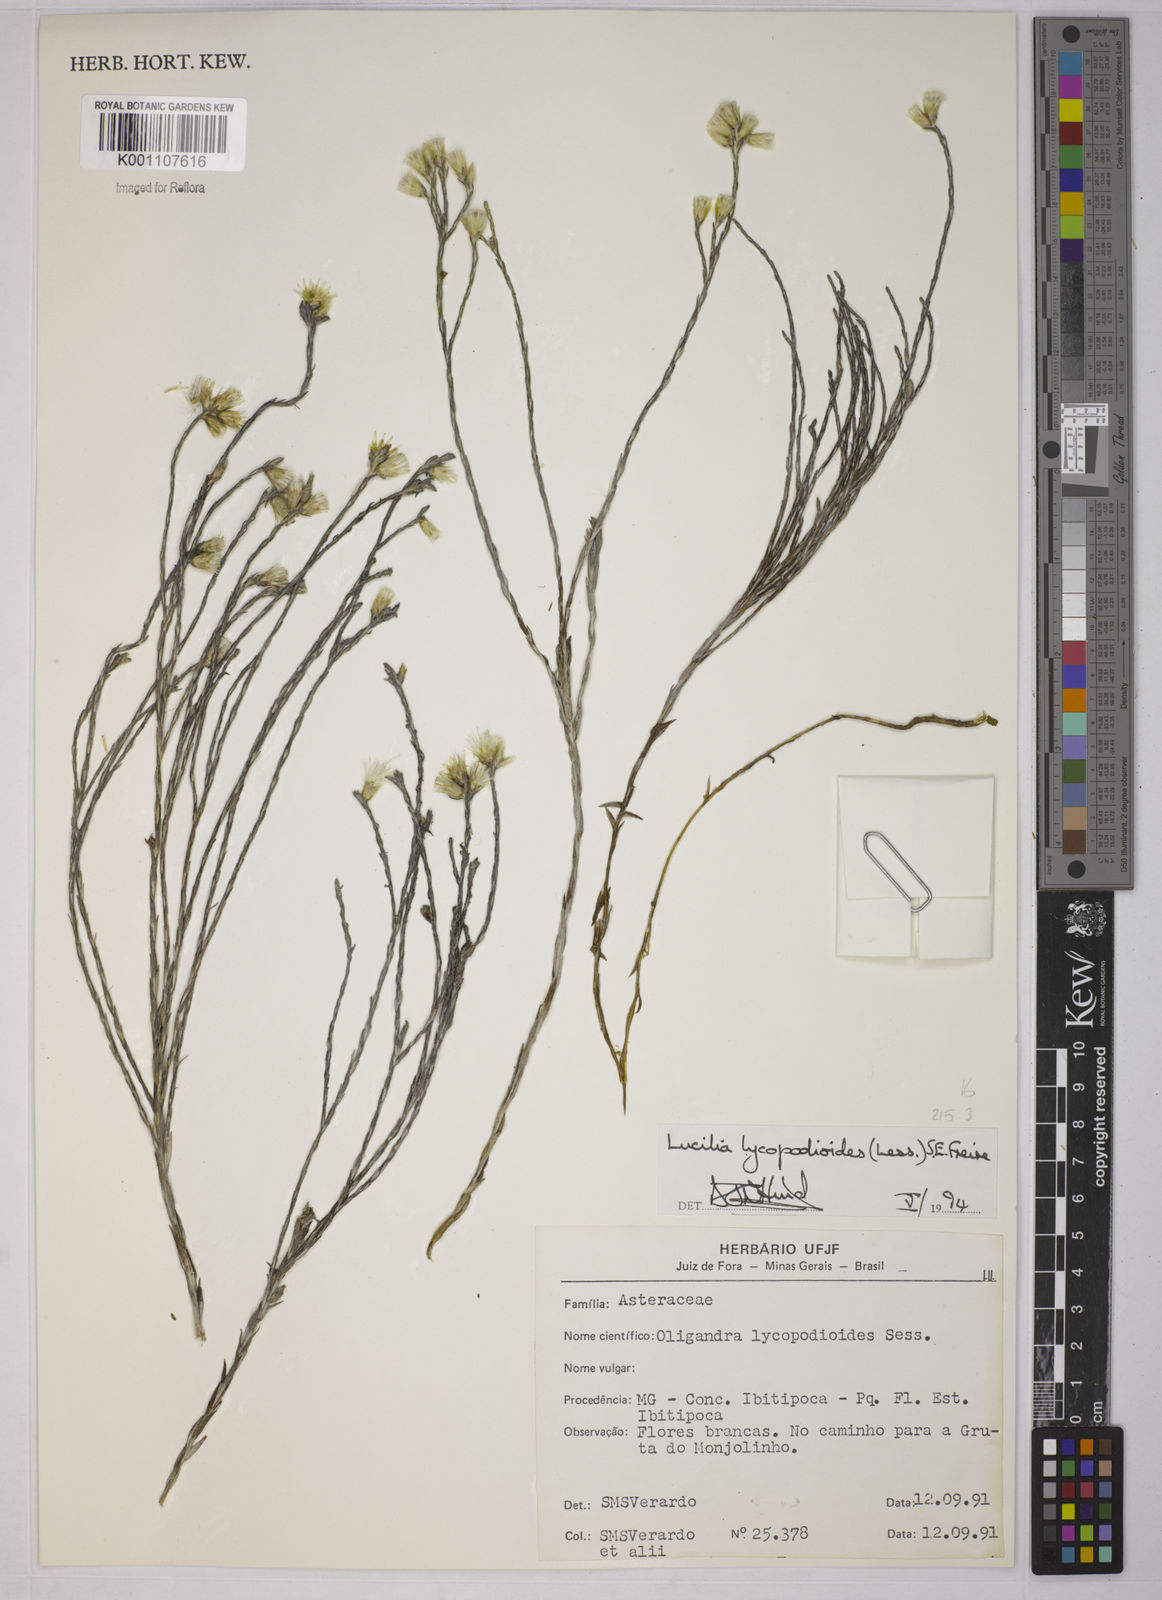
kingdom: Plantae
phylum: Tracheophyta
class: Magnoliopsida
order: Asterales
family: Asteraceae
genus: Lucilia
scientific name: Lucilia lycopodioides
